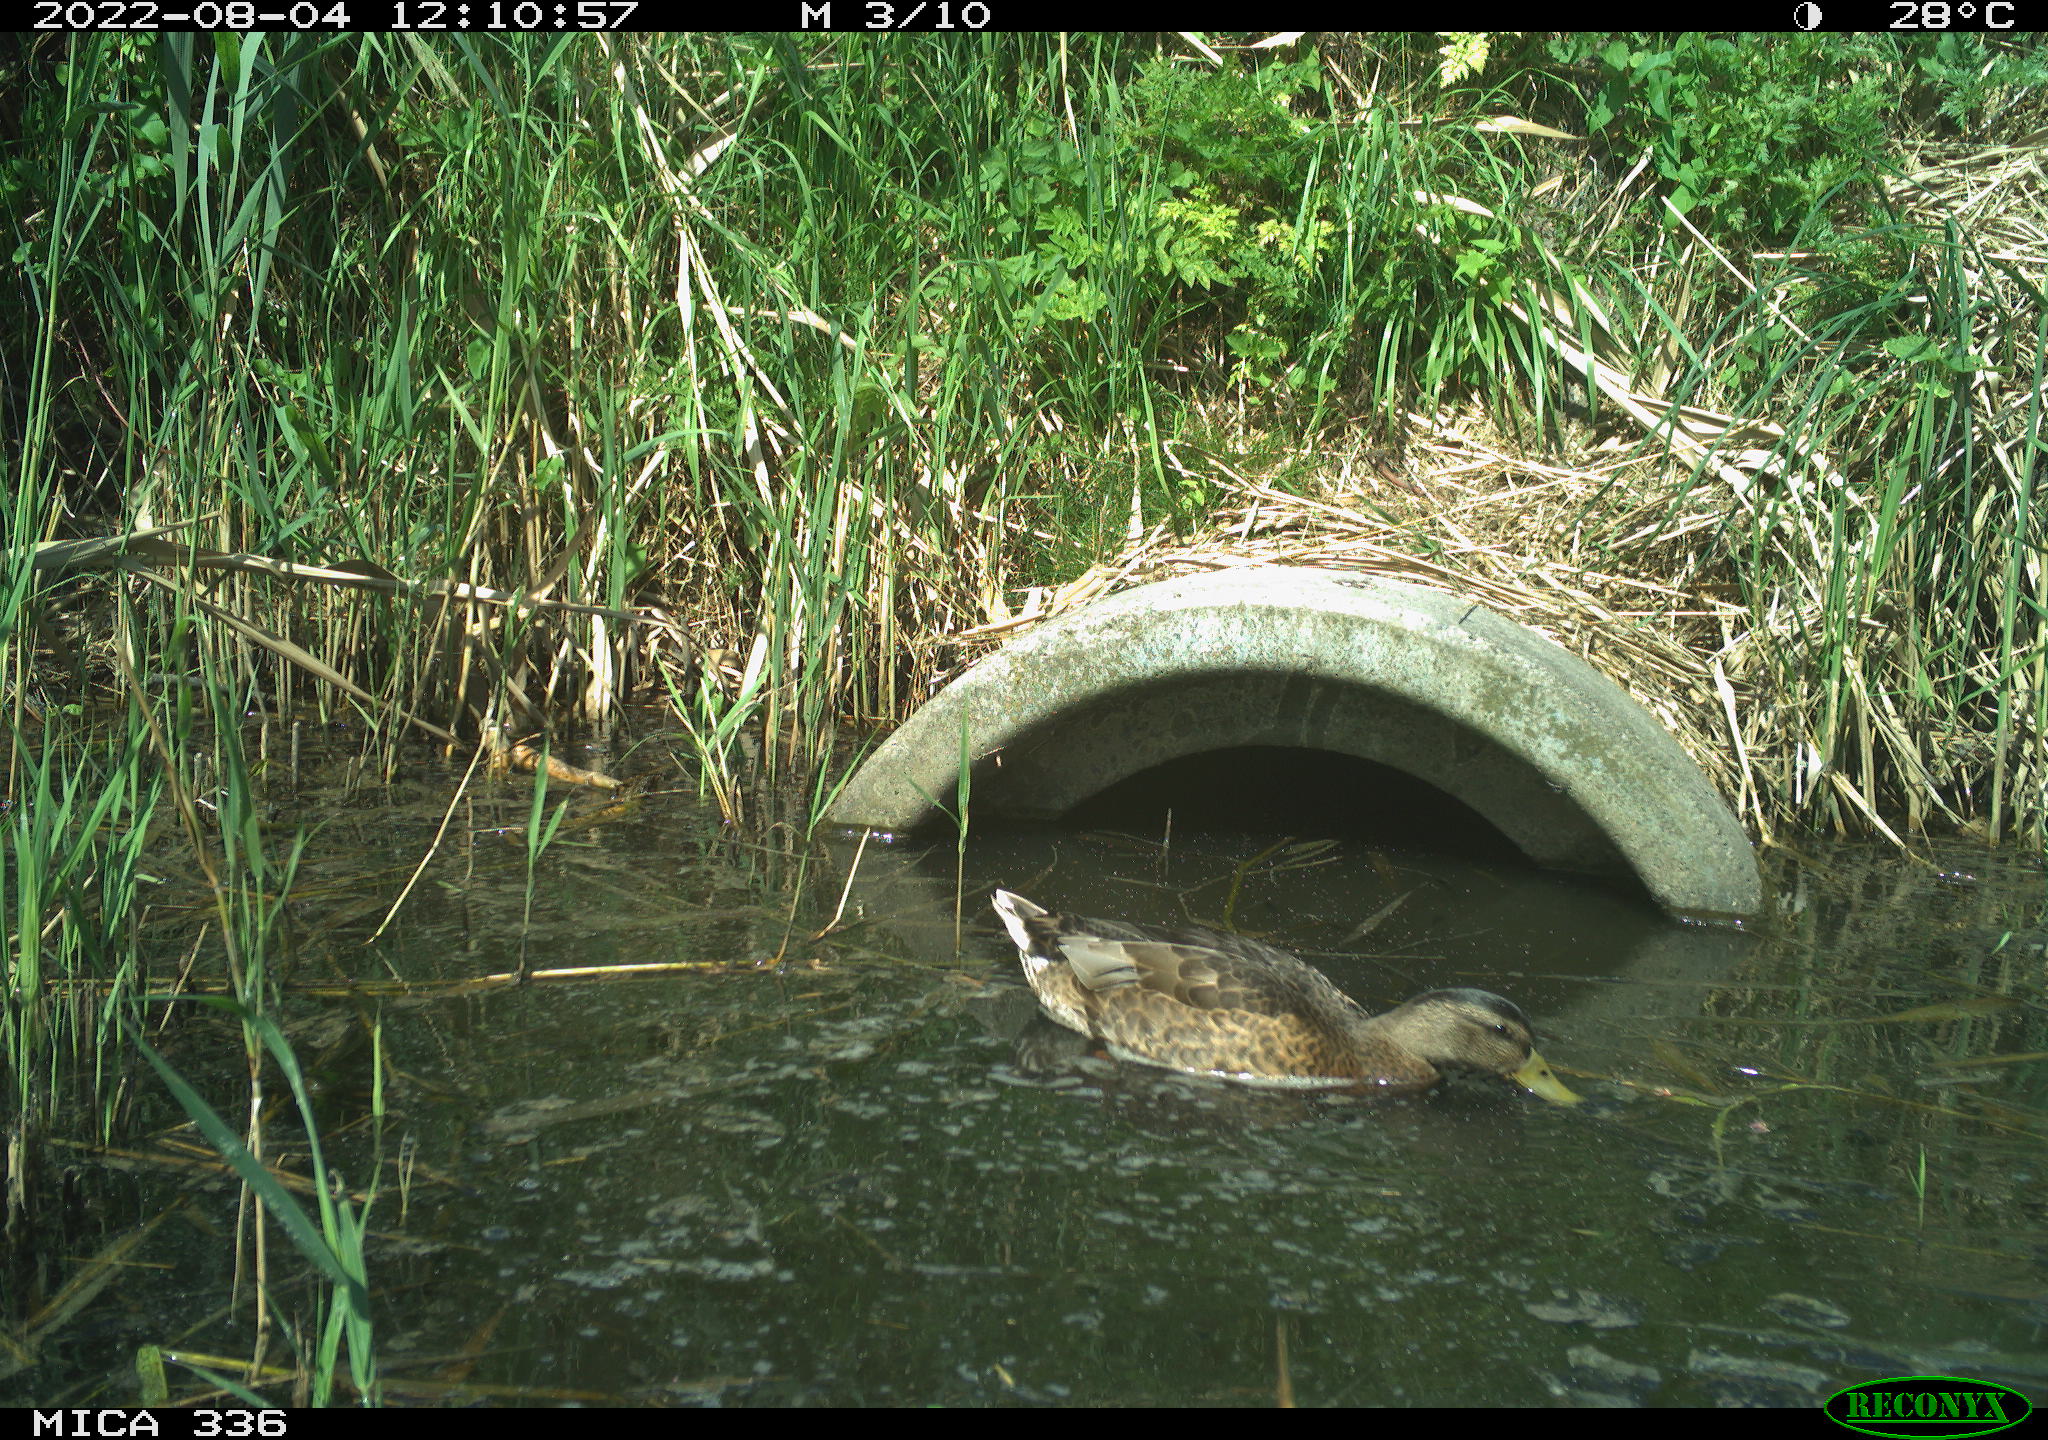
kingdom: Animalia
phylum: Chordata
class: Aves
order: Anseriformes
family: Anatidae
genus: Mareca
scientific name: Mareca strepera
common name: Gadwall
